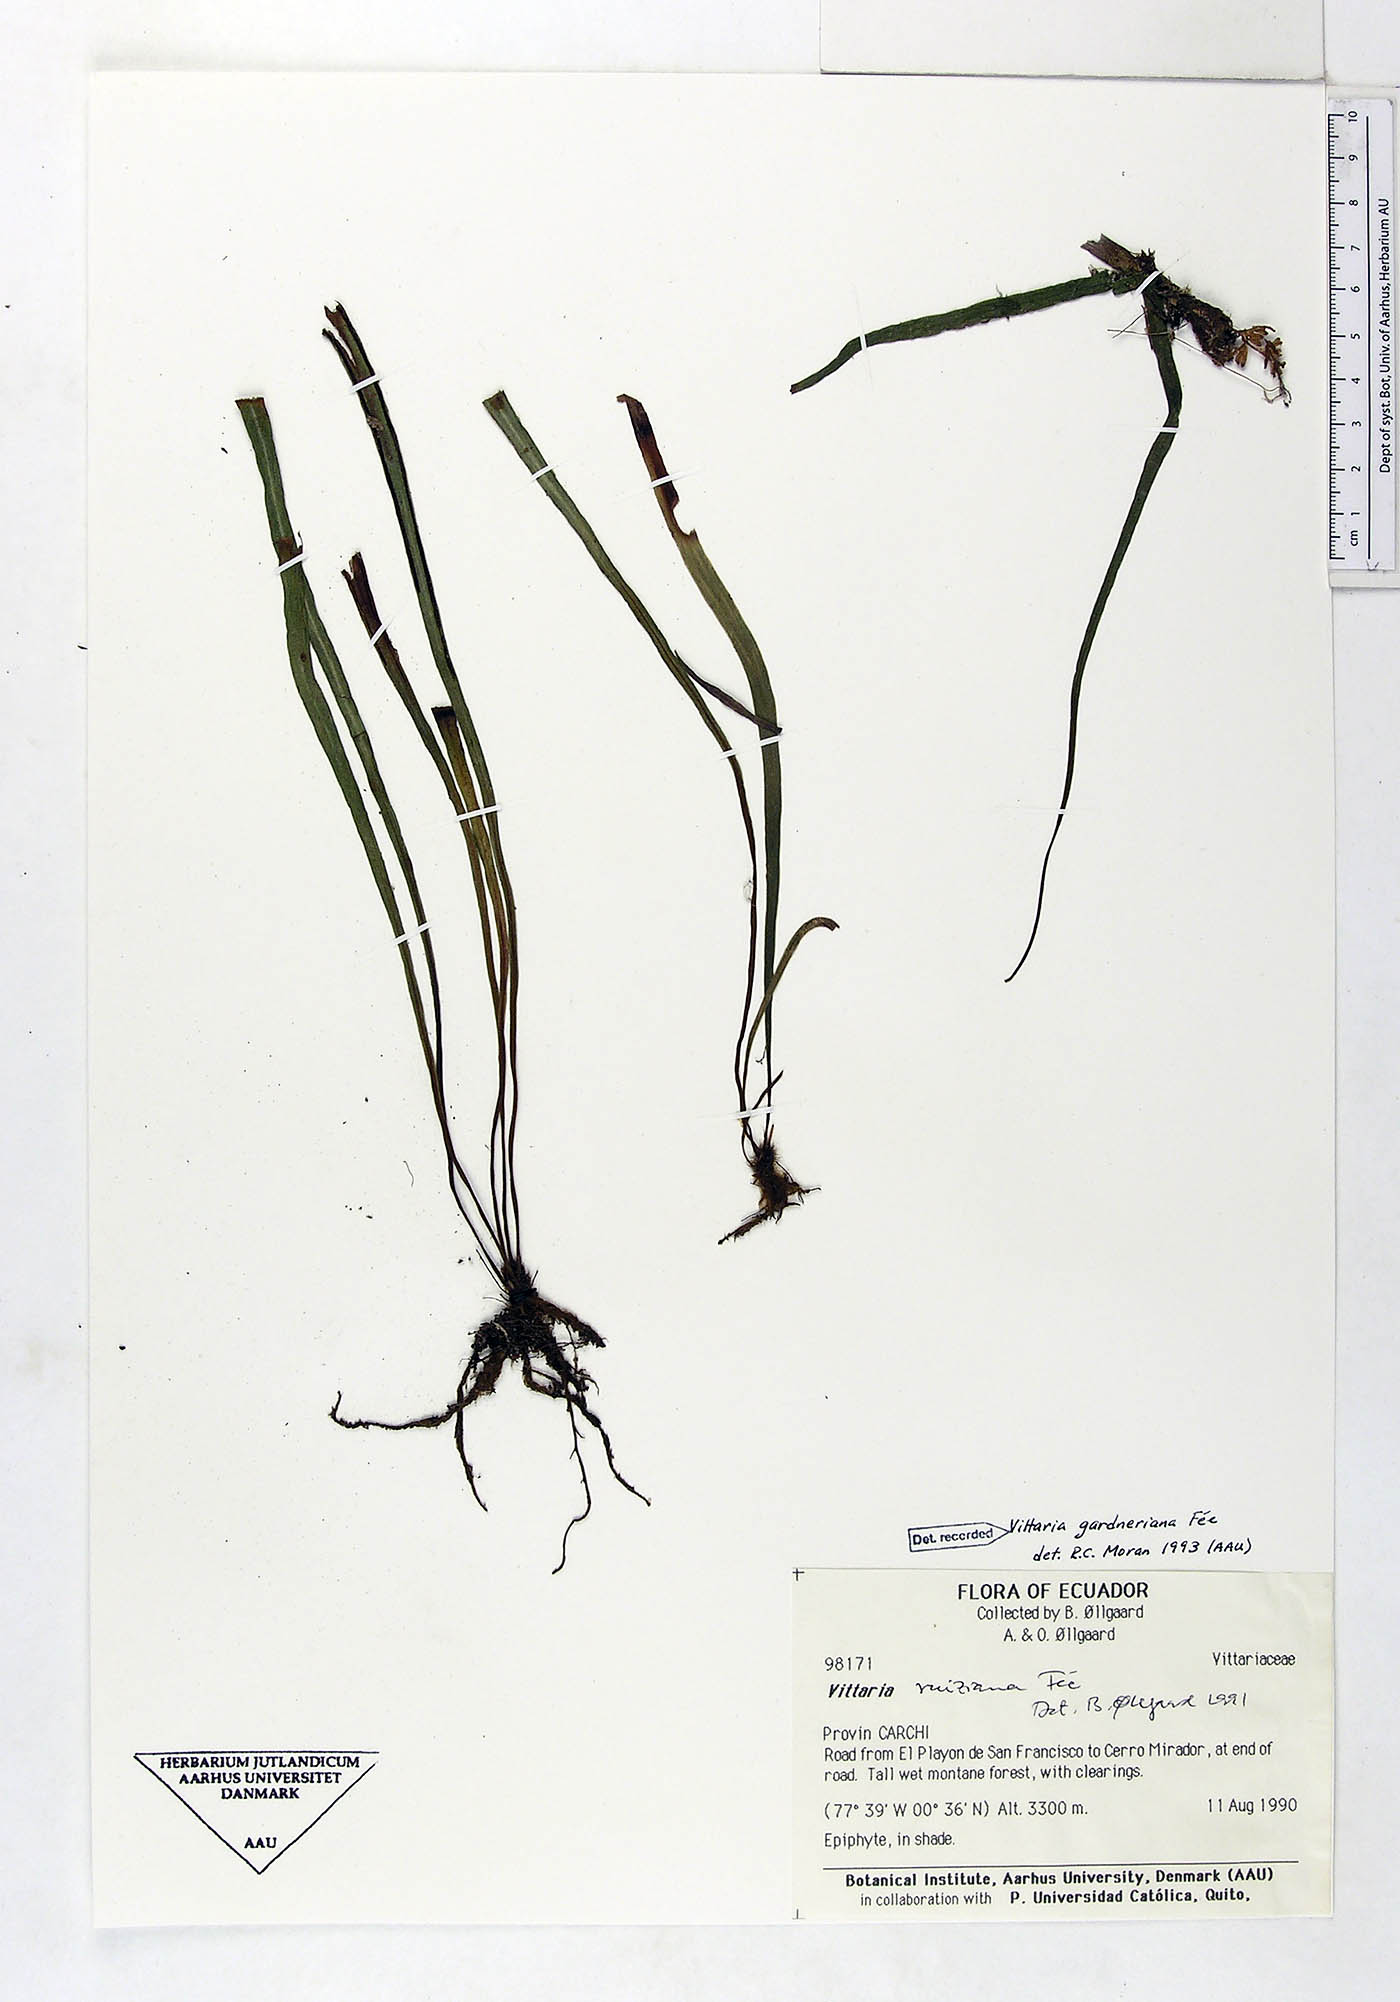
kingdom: Plantae
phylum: Tracheophyta
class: Polypodiopsida
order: Polypodiales
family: Pteridaceae
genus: Radiovittaria
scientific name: Radiovittaria gardneriana
